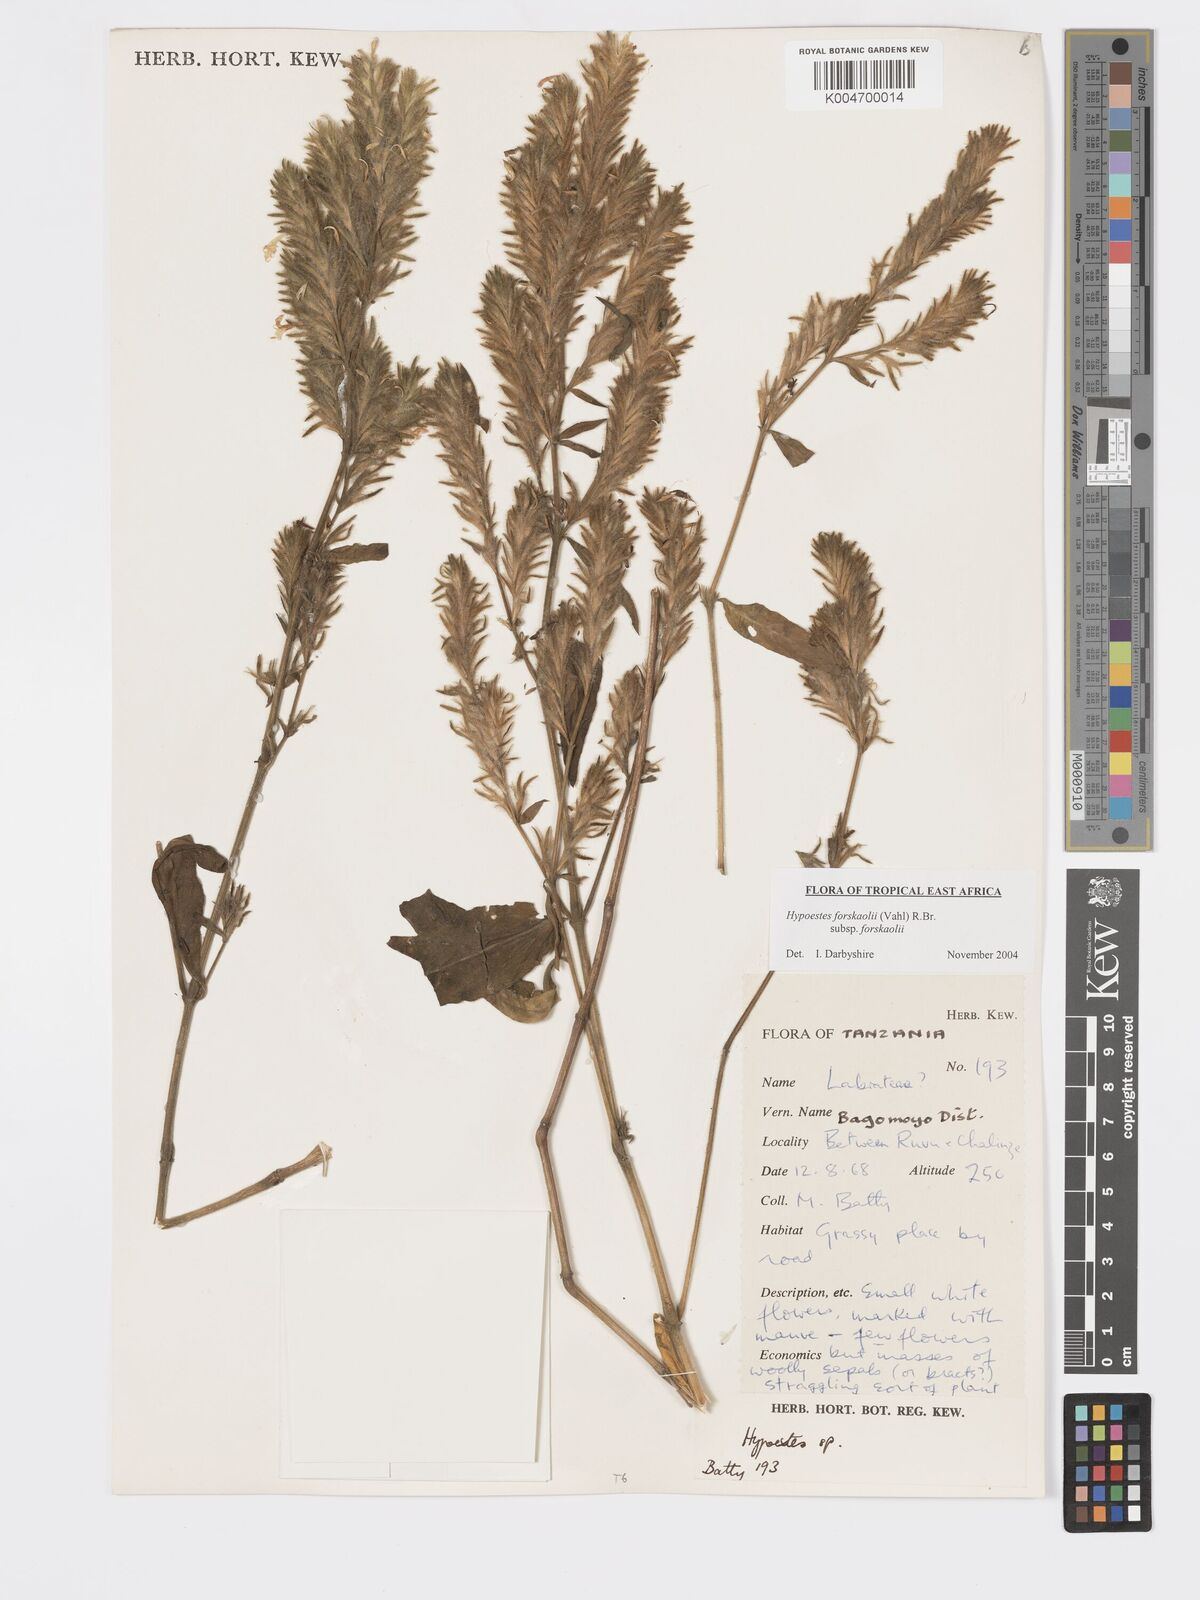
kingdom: Plantae
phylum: Tracheophyta
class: Magnoliopsida
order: Lamiales
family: Acanthaceae
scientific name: Acanthaceae
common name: Acanthaceae
